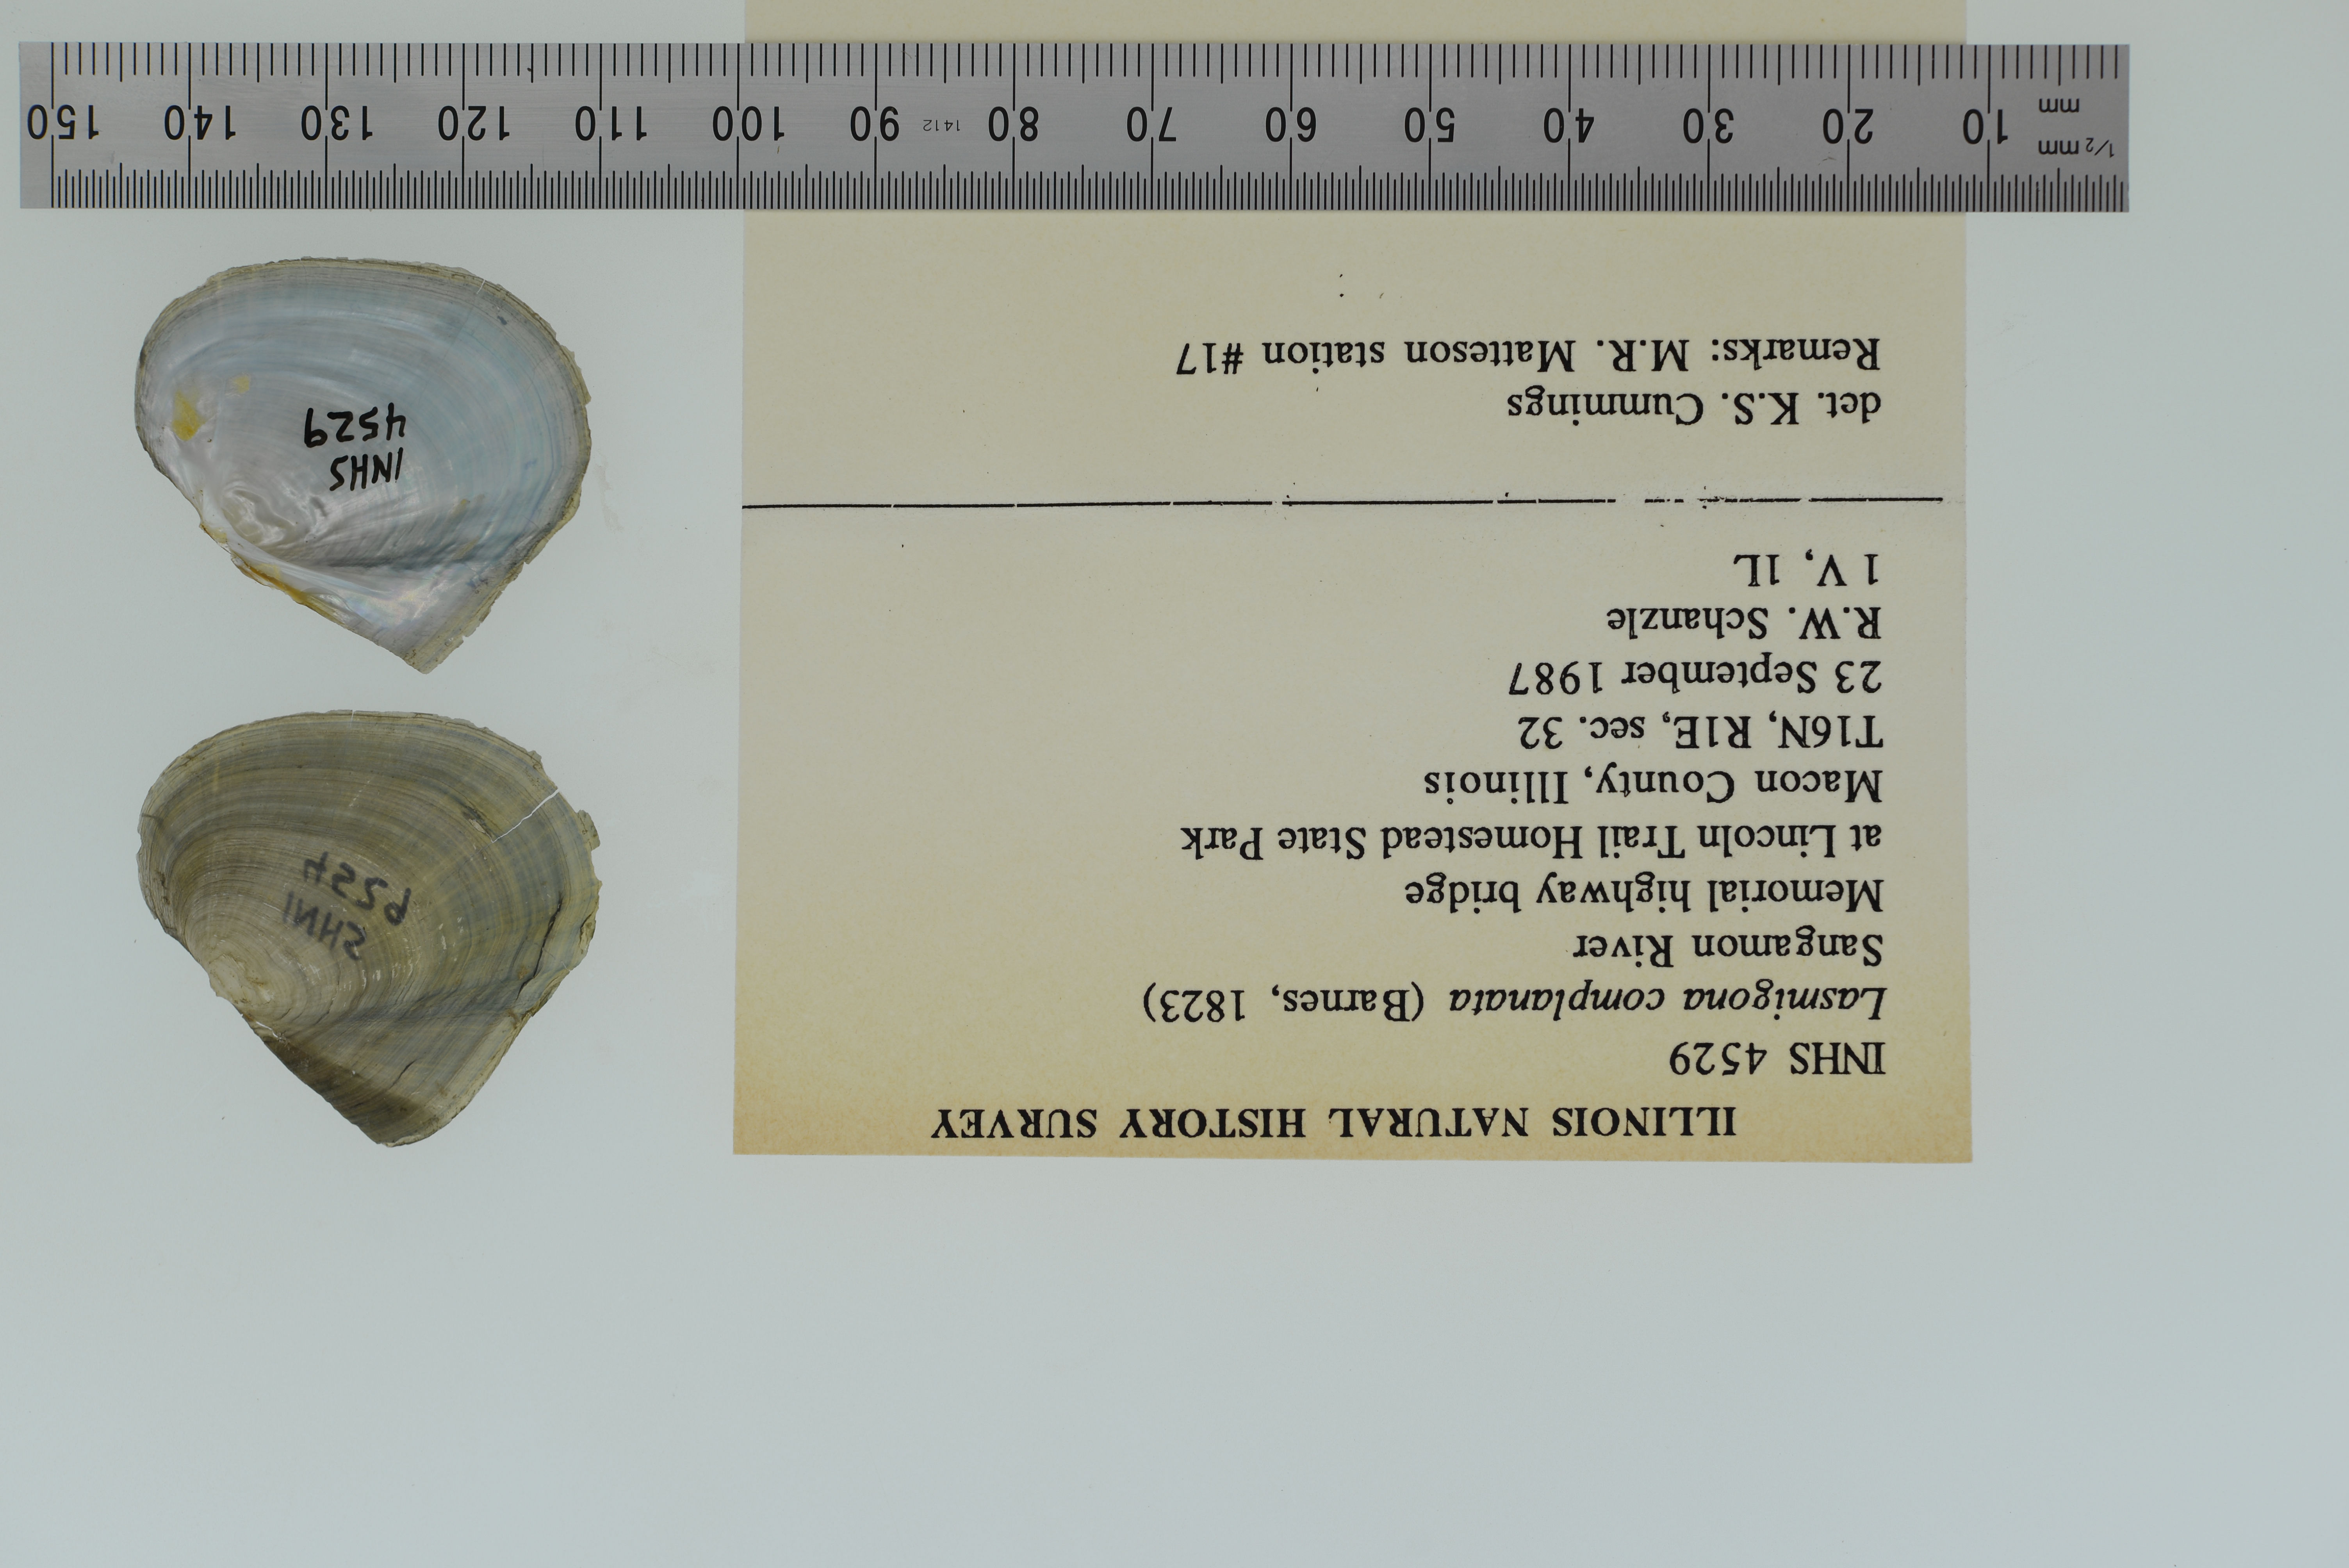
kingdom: Animalia
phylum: Mollusca
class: Bivalvia
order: Unionida
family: Unionidae
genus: Lasmigona
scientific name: Lasmigona complanata
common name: White heelsplitter
